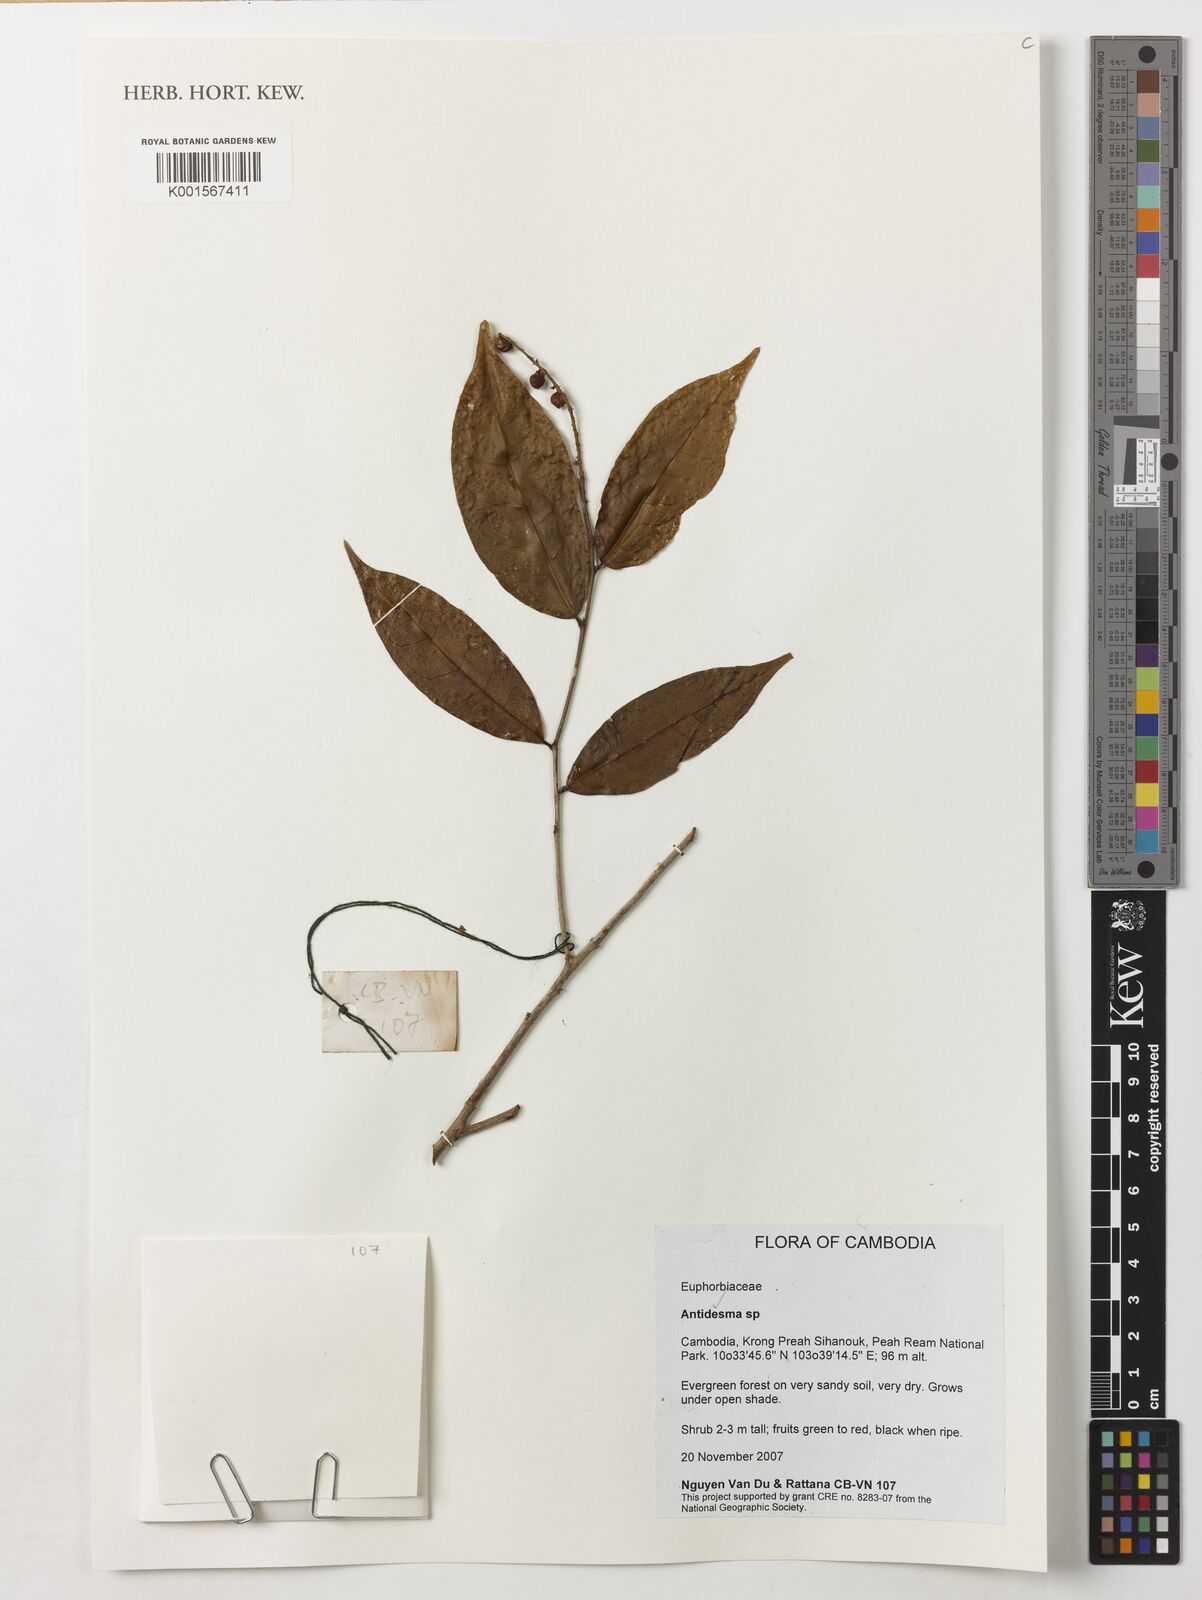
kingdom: Plantae
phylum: Tracheophyta
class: Magnoliopsida
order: Malpighiales
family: Phyllanthaceae
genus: Antidesma
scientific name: Antidesma
